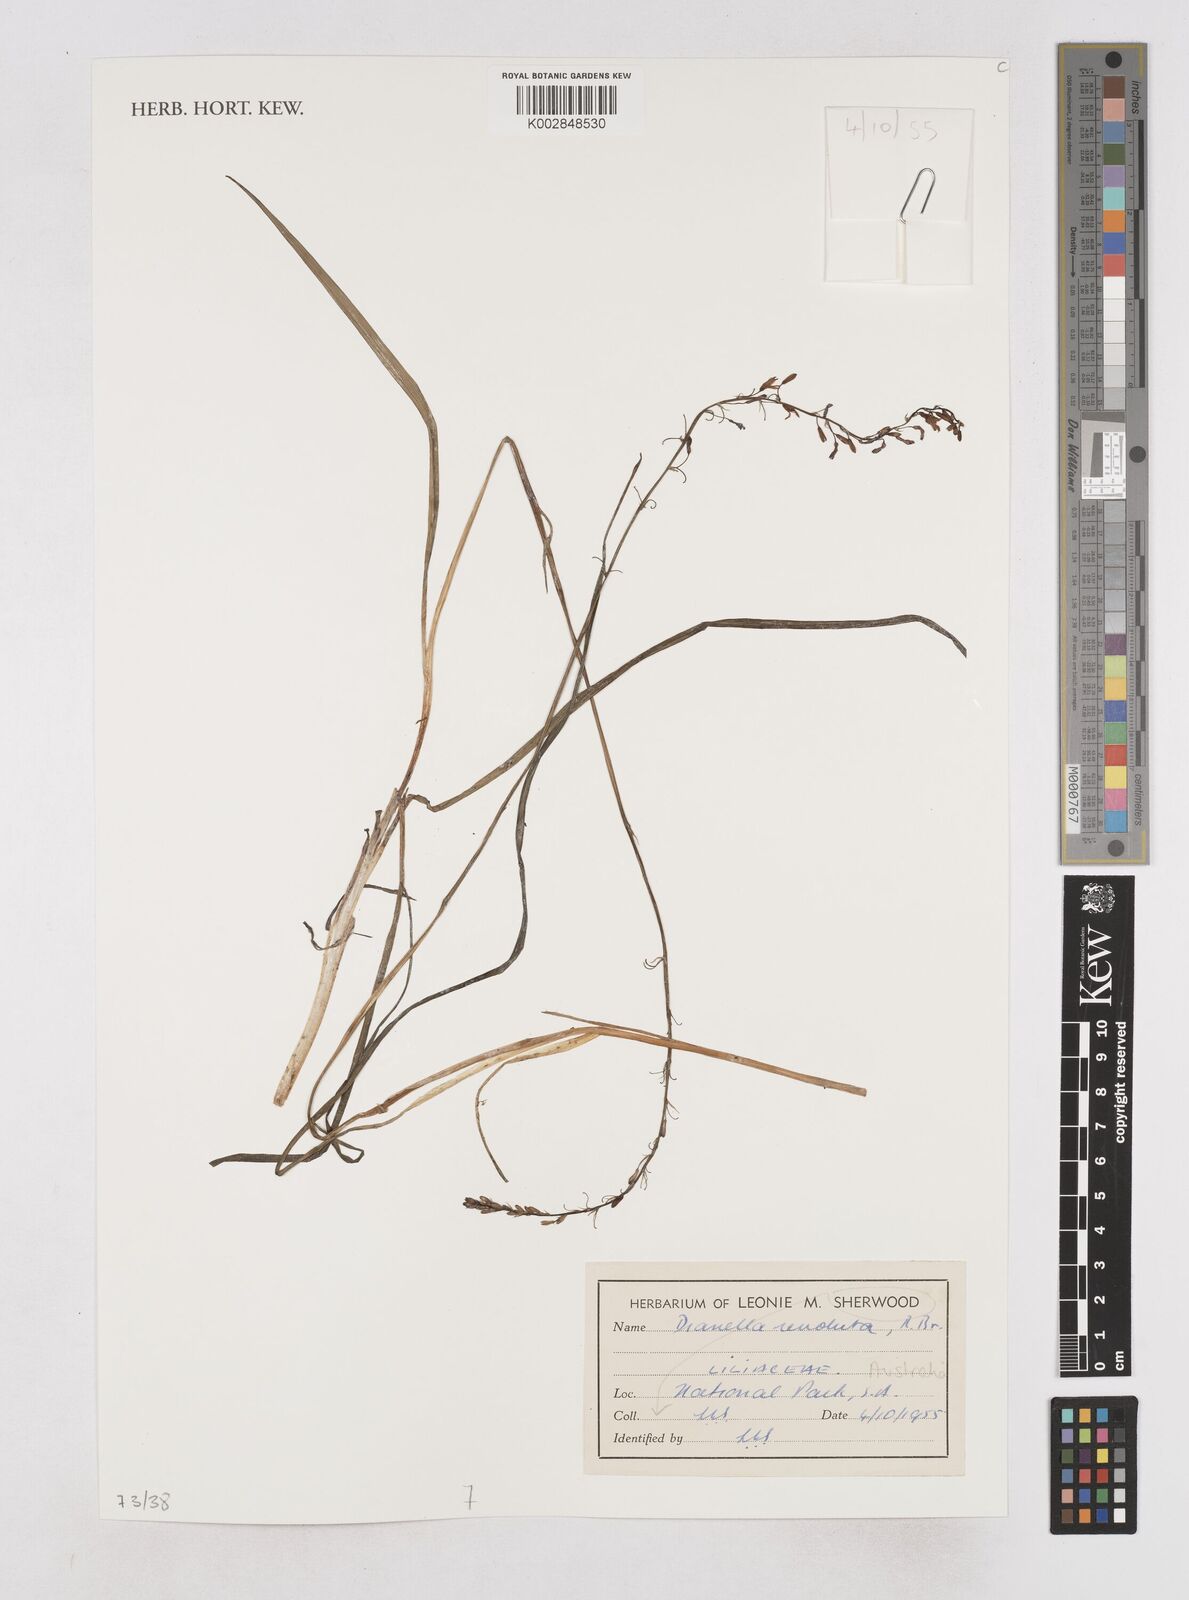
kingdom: Plantae
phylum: Tracheophyta
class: Liliopsida
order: Asparagales
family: Asphodelaceae
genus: Dianella
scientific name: Dianella revoluta
